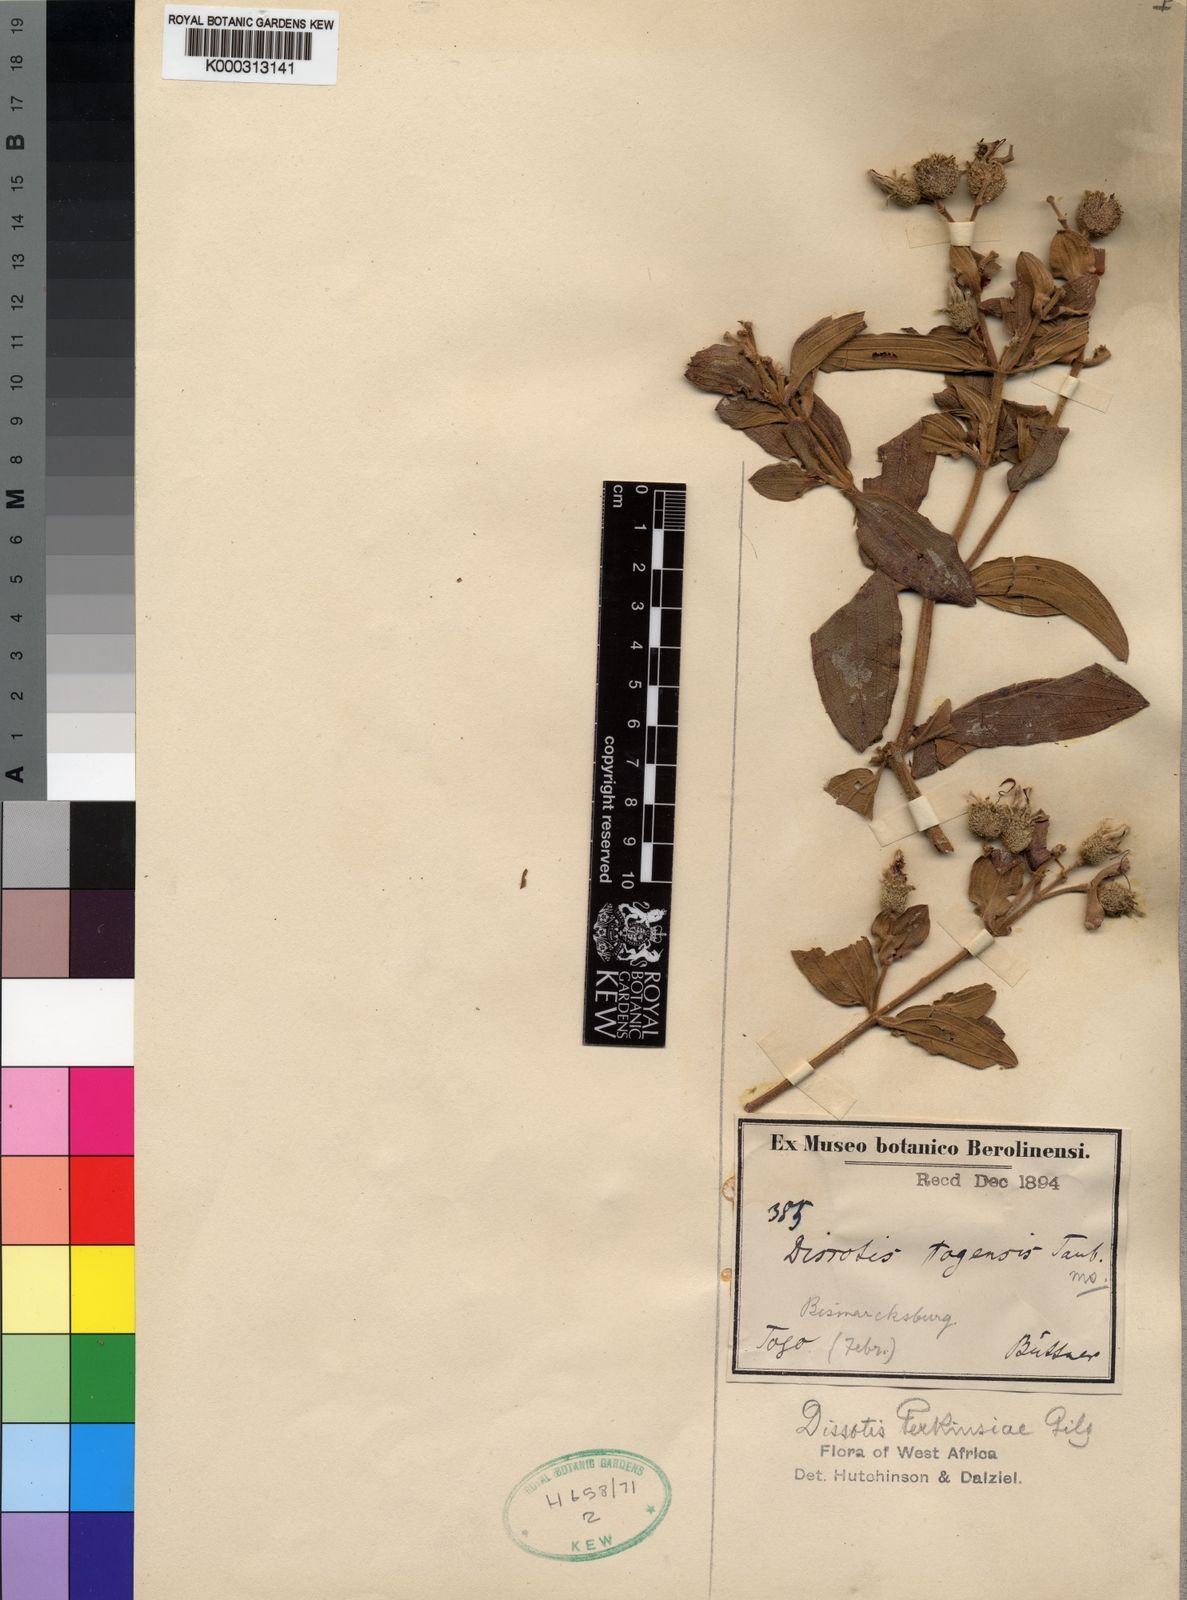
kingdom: Plantae
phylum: Tracheophyta
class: Magnoliopsida
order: Myrtales
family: Melastomataceae
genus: Dissotis
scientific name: Dissotis
